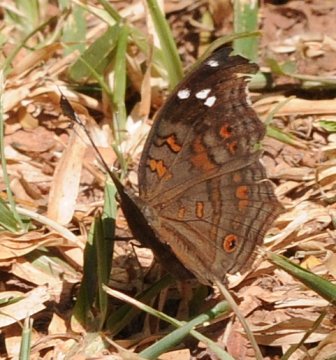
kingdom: Animalia
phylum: Arthropoda
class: Insecta
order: Lepidoptera
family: Nymphalidae
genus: Junonia
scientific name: Junonia natalica
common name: Natal Pansy
